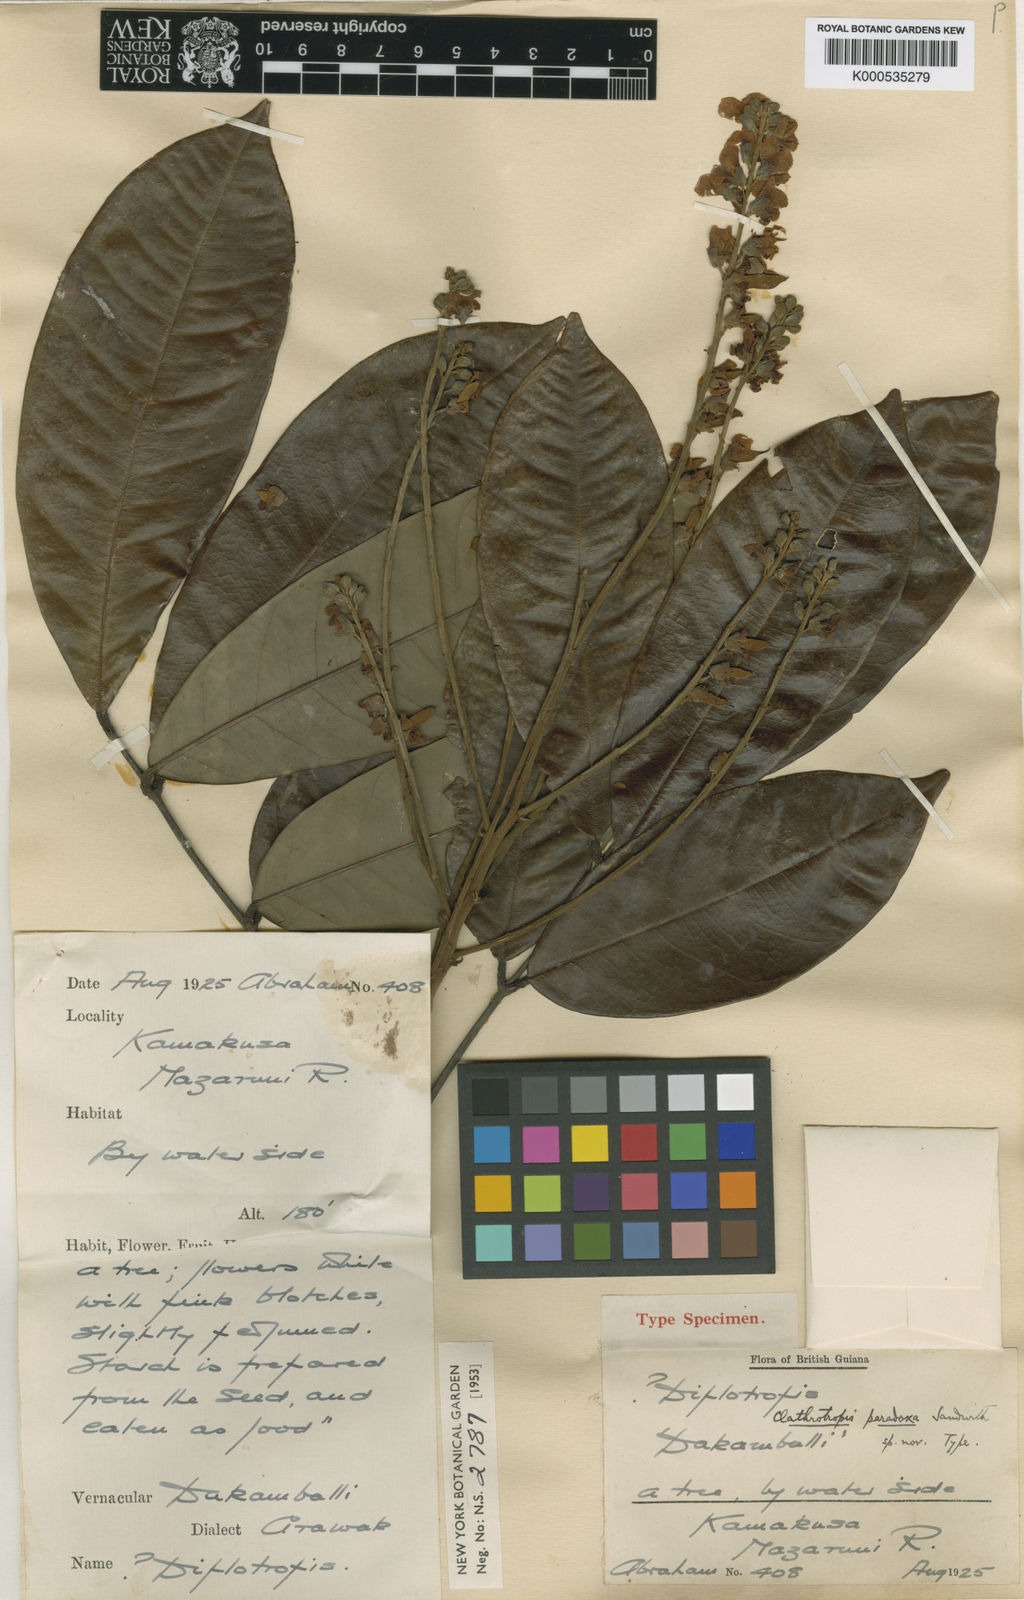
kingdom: Plantae
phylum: Tracheophyta
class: Magnoliopsida
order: Fabales
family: Fabaceae
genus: Clathrotropis
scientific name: Clathrotropis paradoxa
